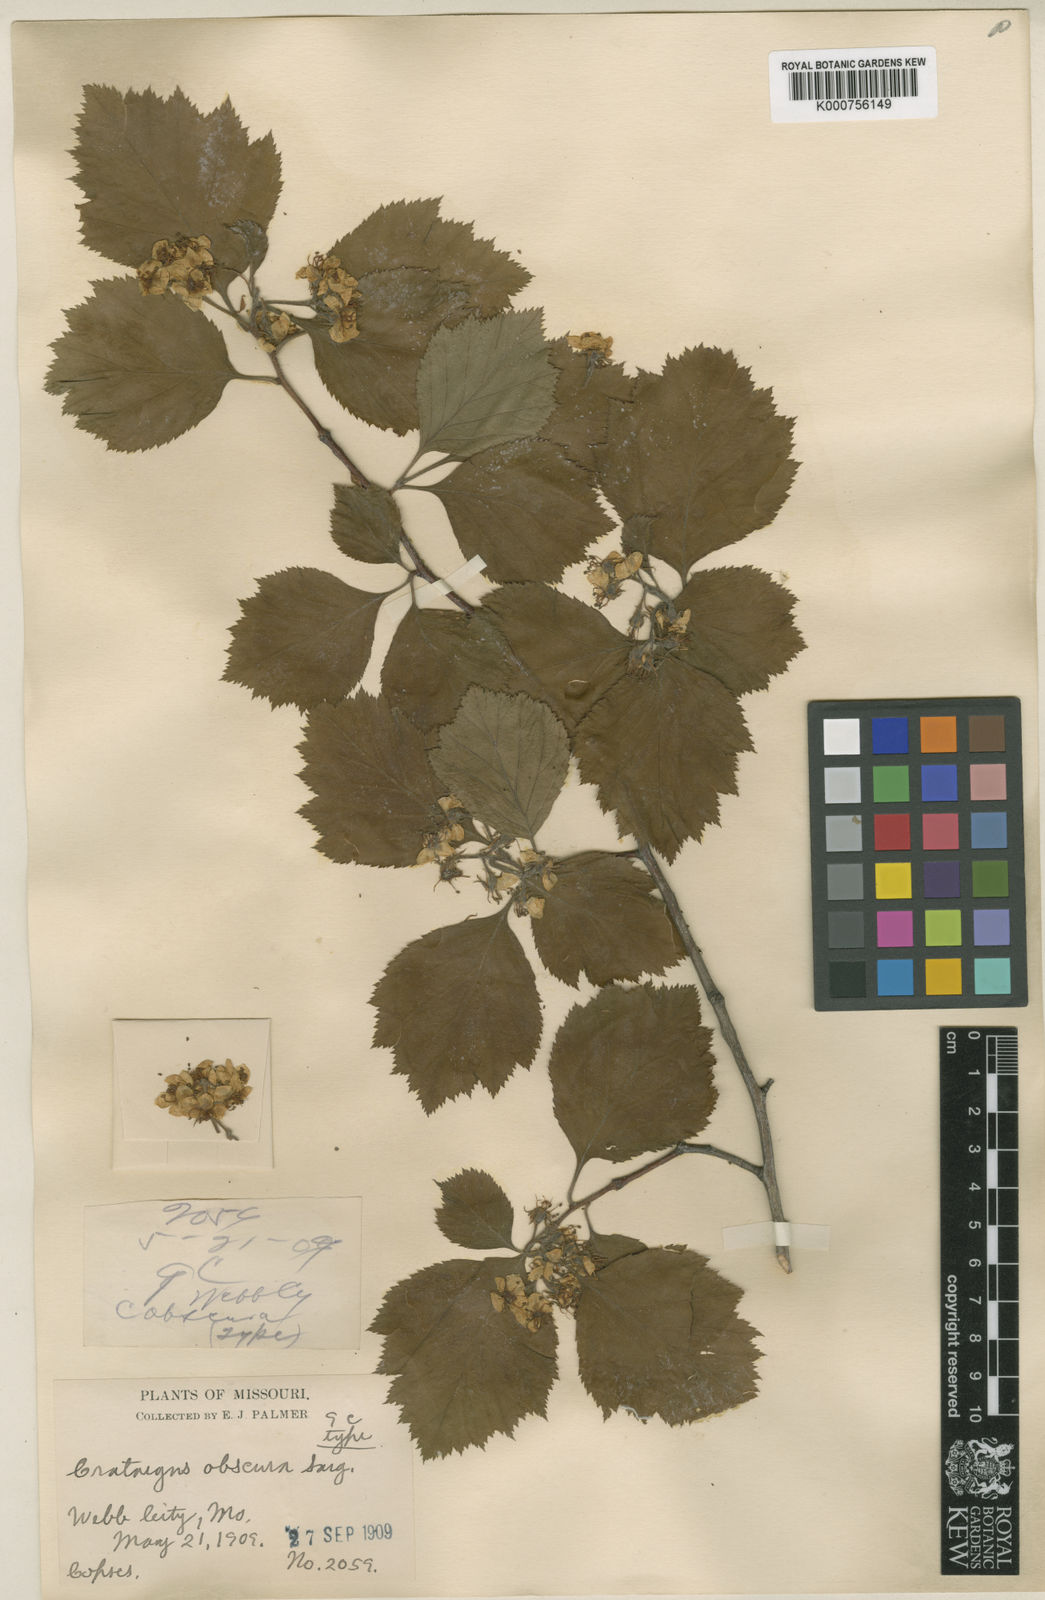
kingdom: Plantae
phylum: Tracheophyta
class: Magnoliopsida
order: Rosales
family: Rosaceae
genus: Crataegus
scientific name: Crataegus obscura
